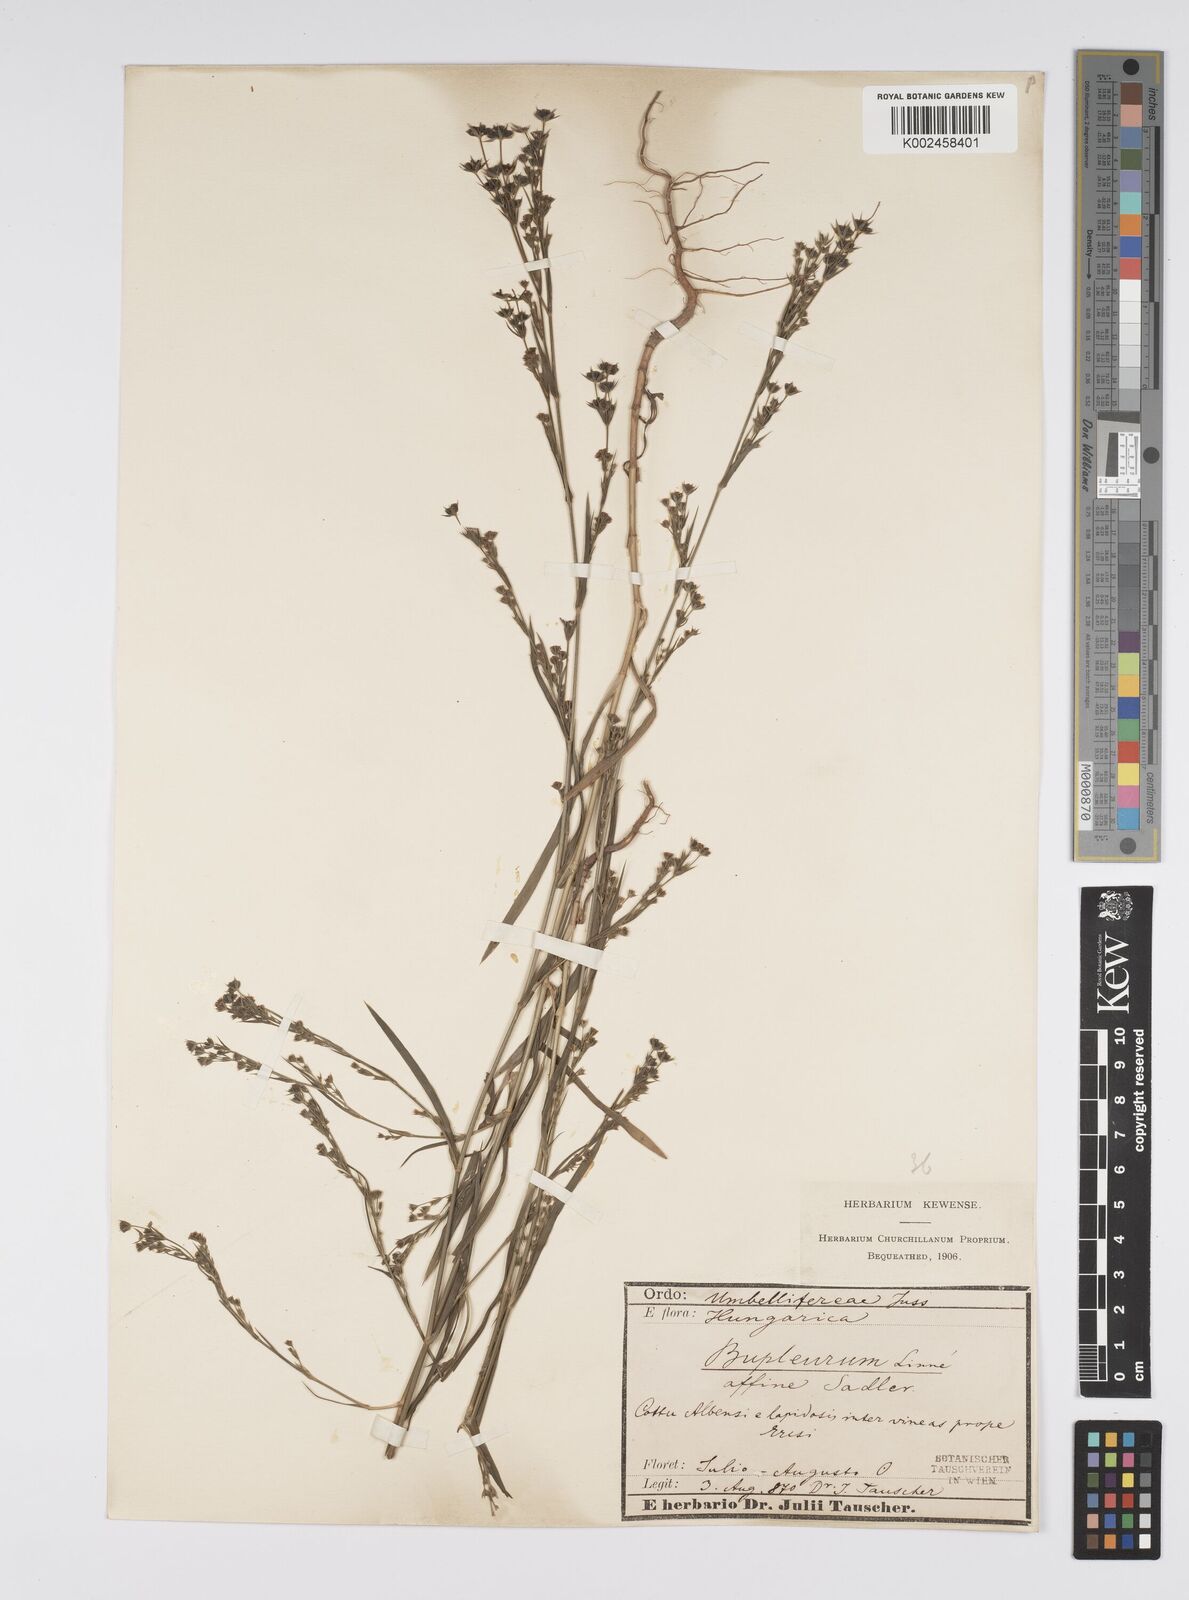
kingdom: Plantae
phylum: Tracheophyta
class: Magnoliopsida
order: Apiales
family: Apiaceae
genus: Bupleurum
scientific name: Bupleurum affine
